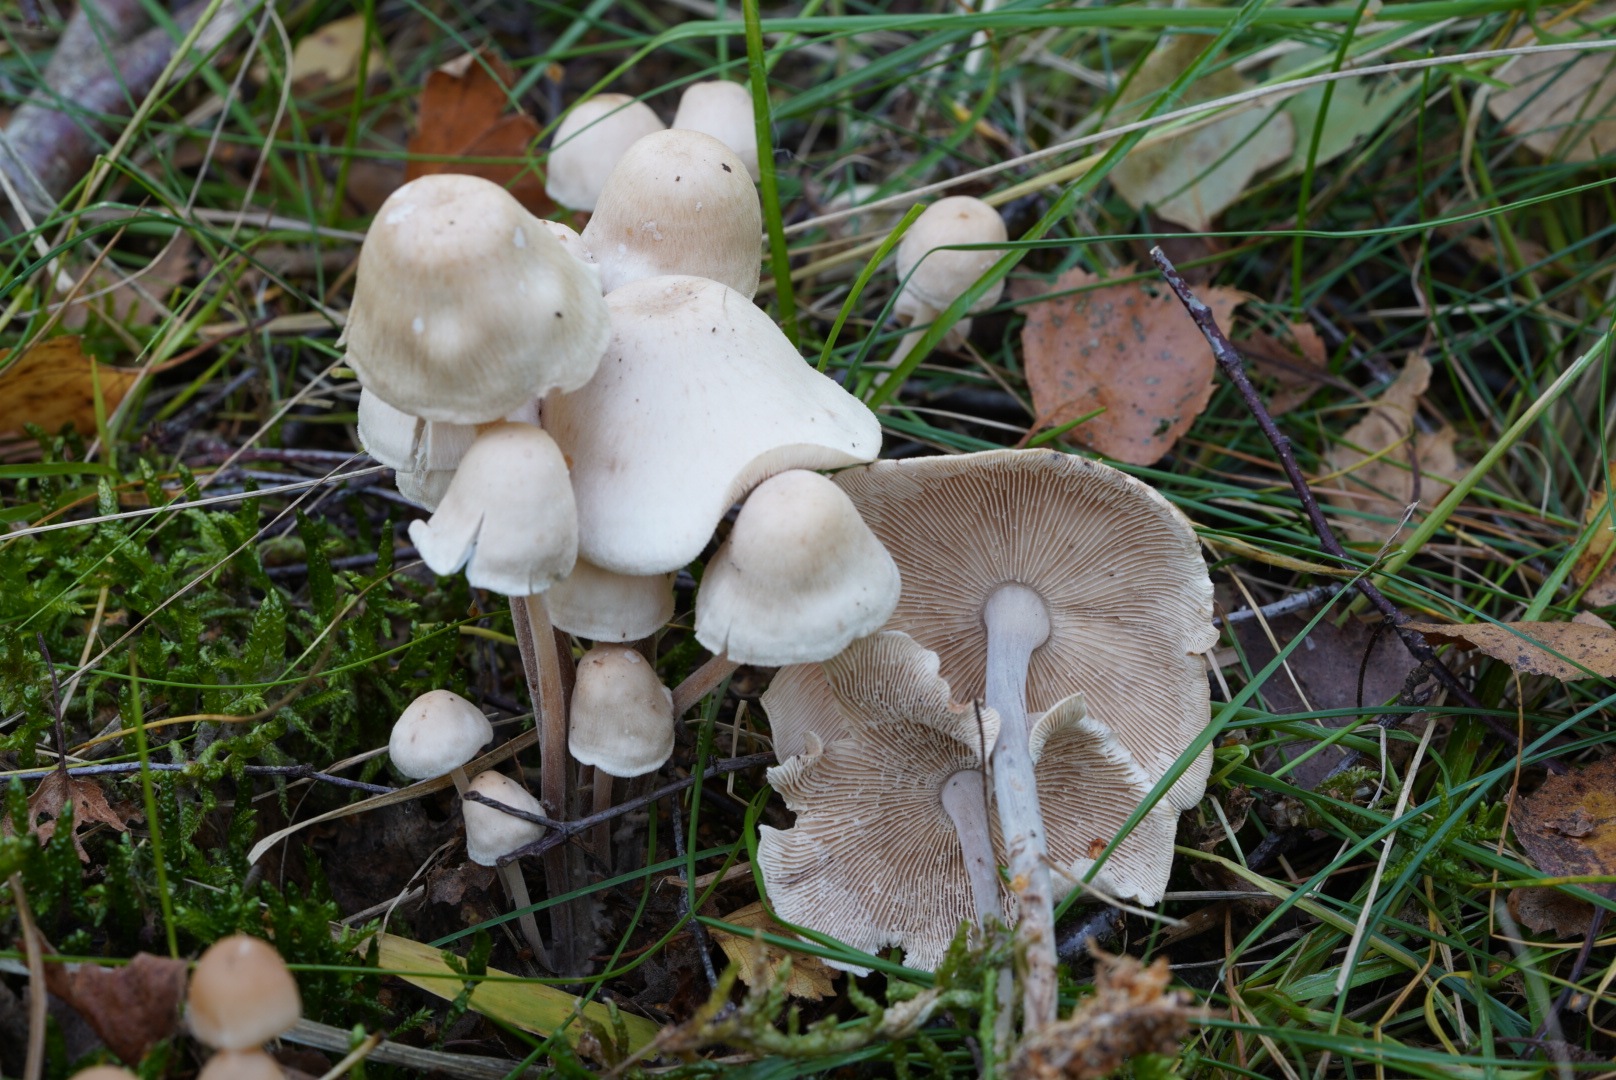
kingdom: Fungi
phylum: Basidiomycota
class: Agaricomycetes
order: Agaricales
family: Omphalotaceae
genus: Collybiopsis
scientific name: Collybiopsis confluens
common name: knippe-fladhat
